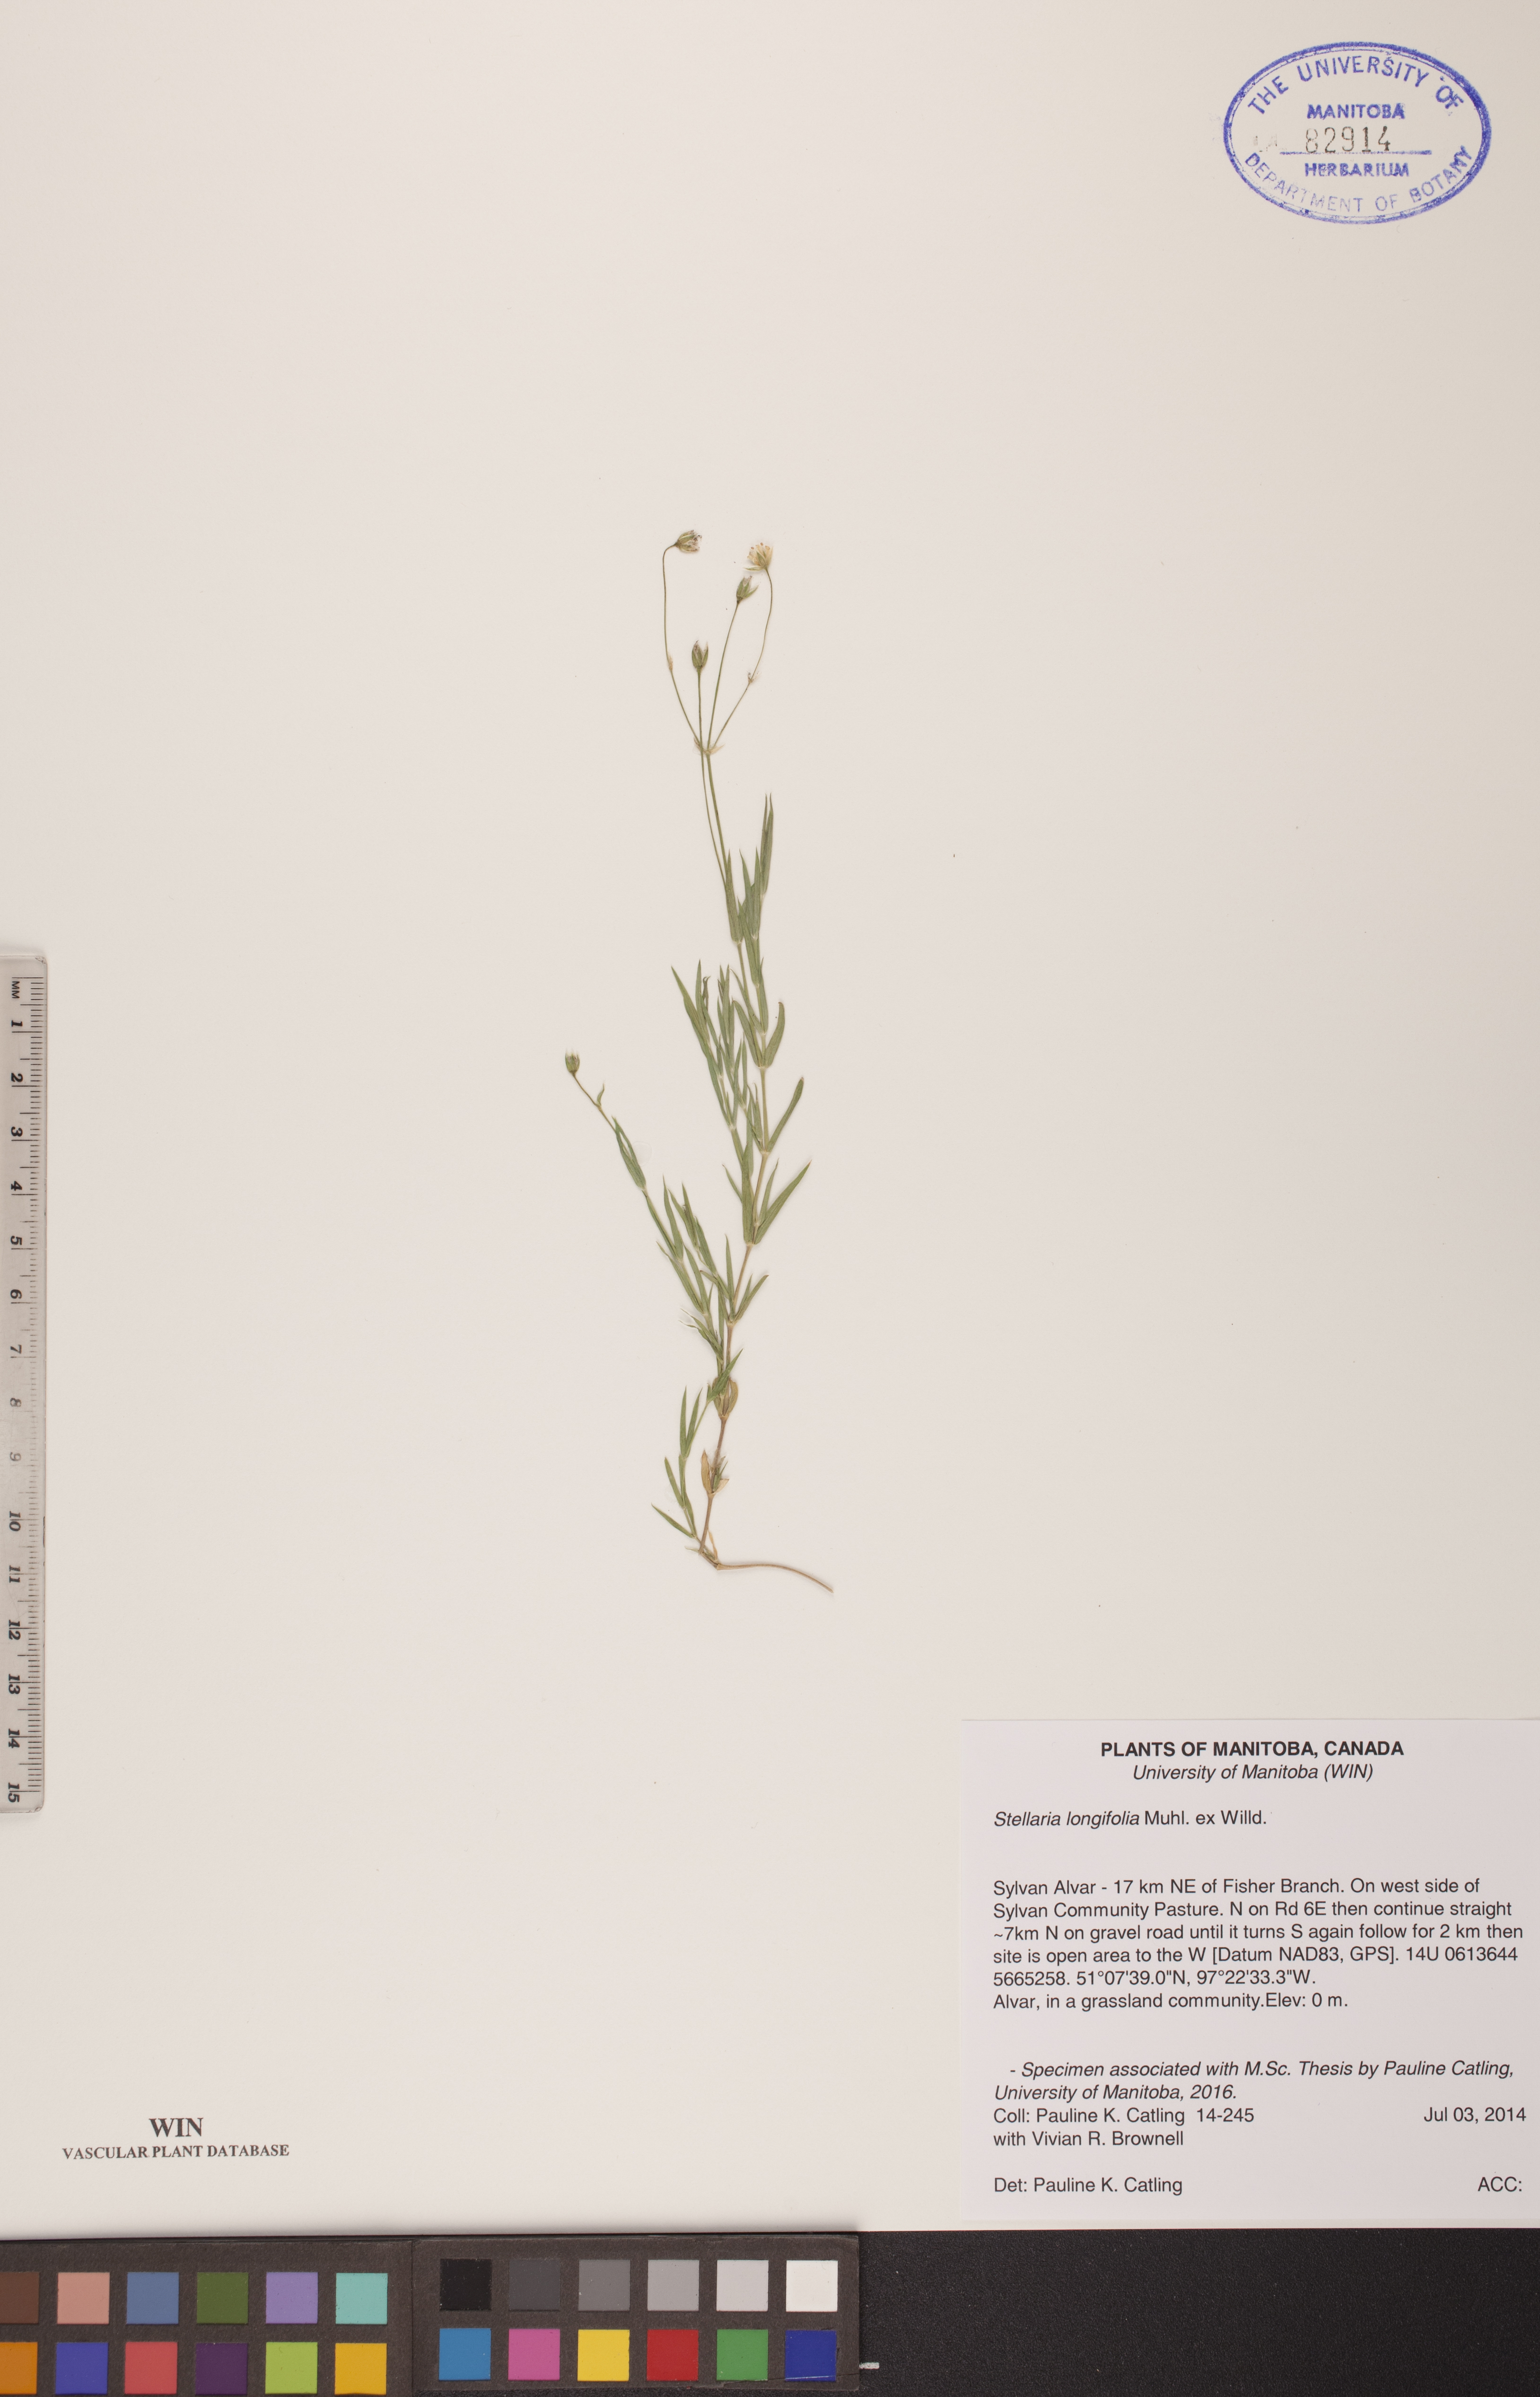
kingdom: Plantae
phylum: Tracheophyta
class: Magnoliopsida
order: Caryophyllales
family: Caryophyllaceae
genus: Stellaria
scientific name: Stellaria longifolia
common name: Long-leaved chickweed
